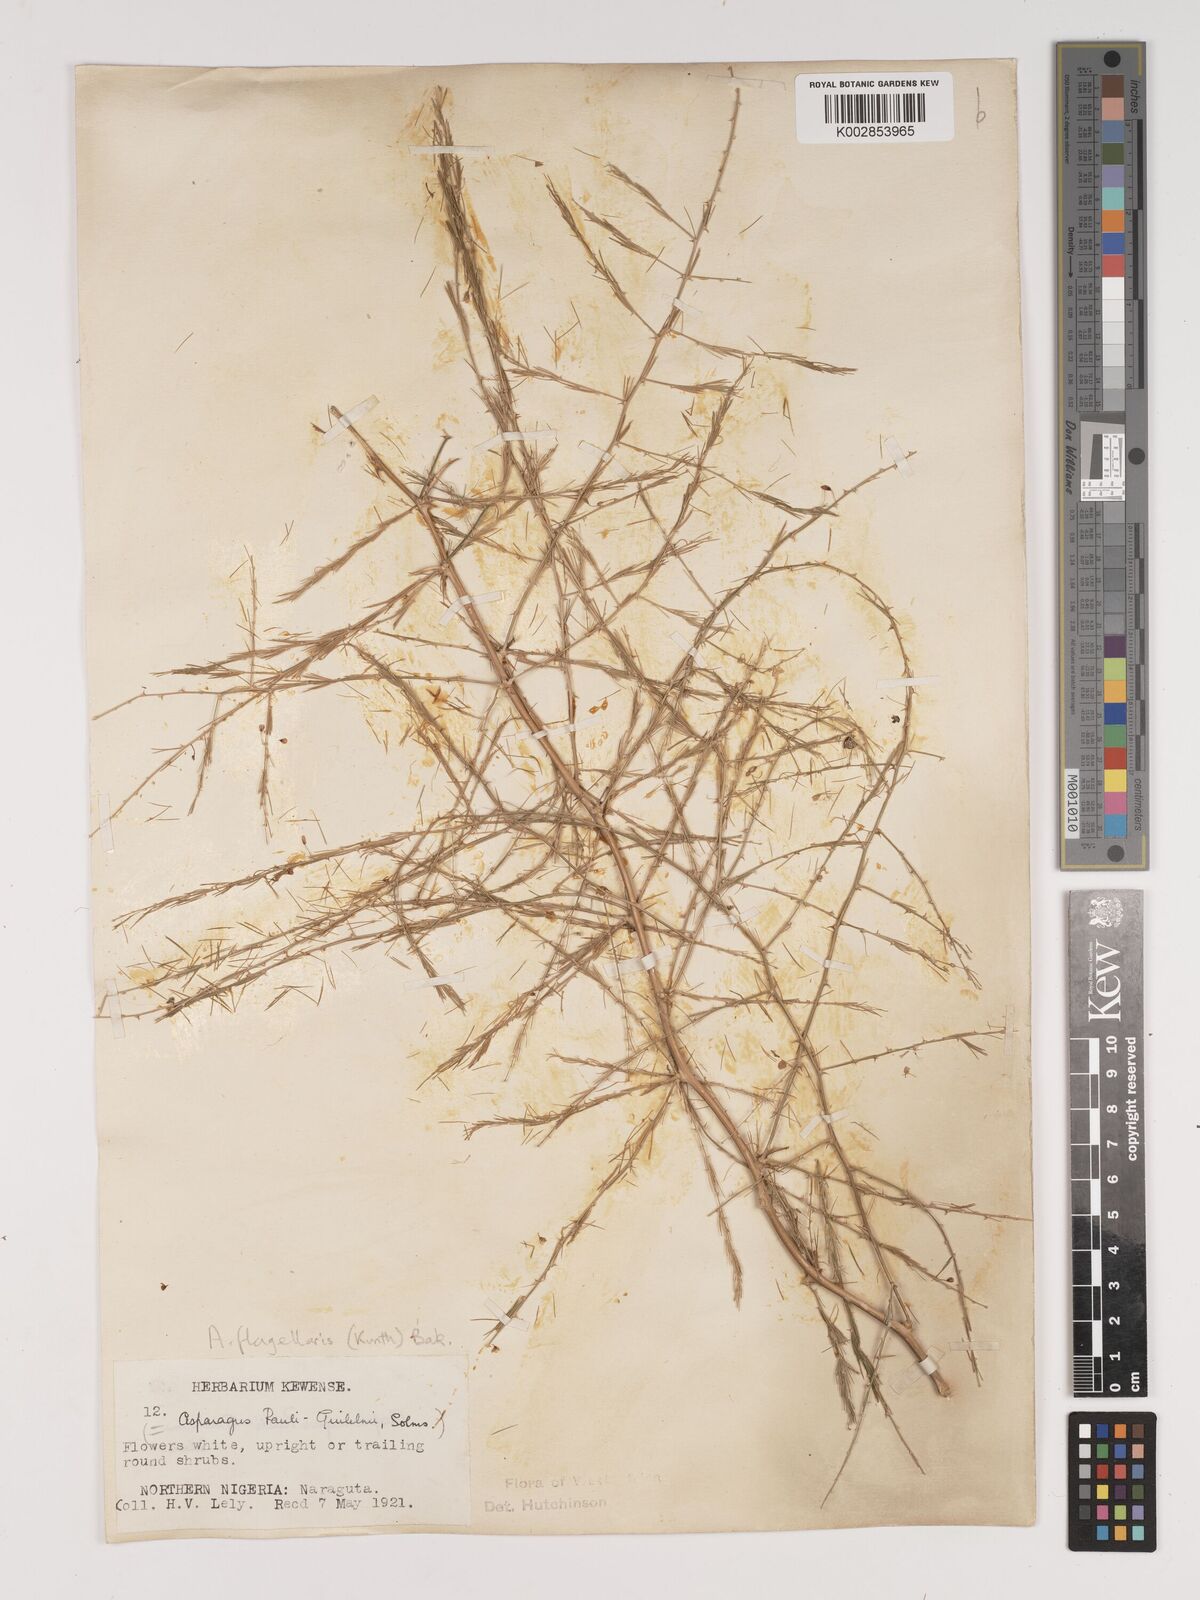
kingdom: Plantae
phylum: Tracheophyta
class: Liliopsida
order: Asparagales
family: Asparagaceae
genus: Asparagus
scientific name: Asparagus flagellaris
